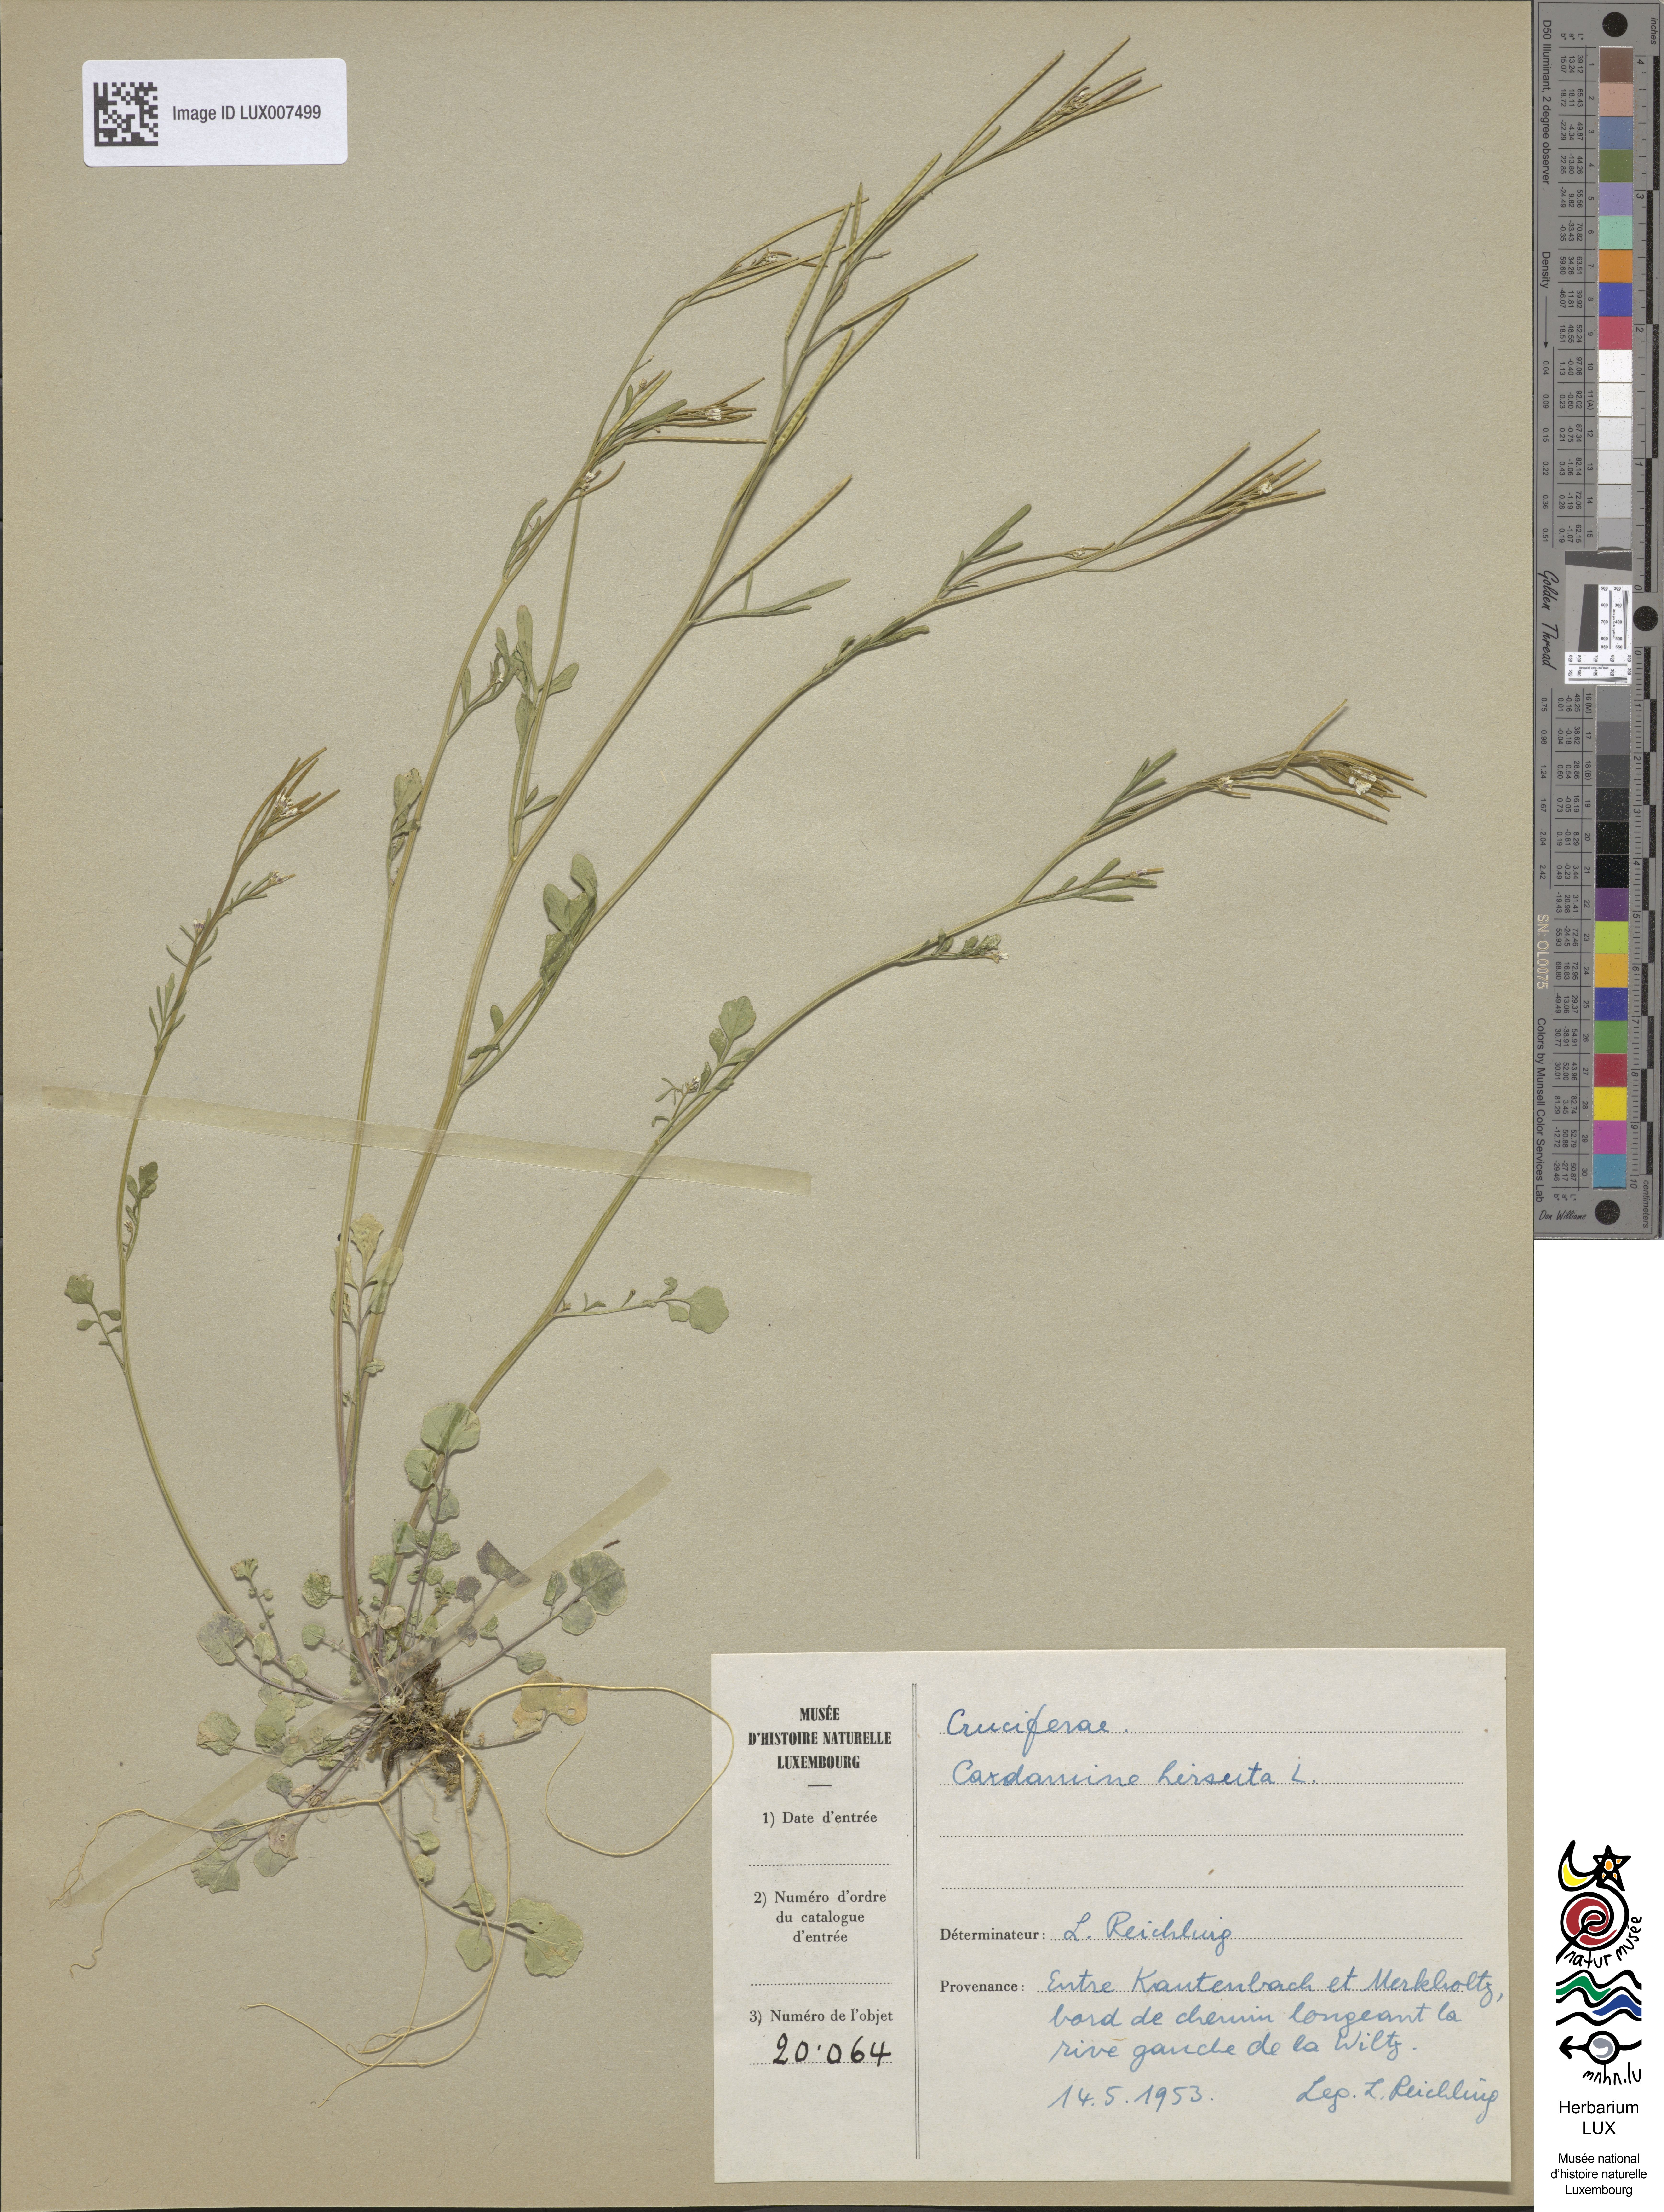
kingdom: Plantae
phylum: Tracheophyta
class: Magnoliopsida
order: Brassicales
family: Brassicaceae
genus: Cardamine
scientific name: Cardamine hirsuta
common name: Hairy bittercress
